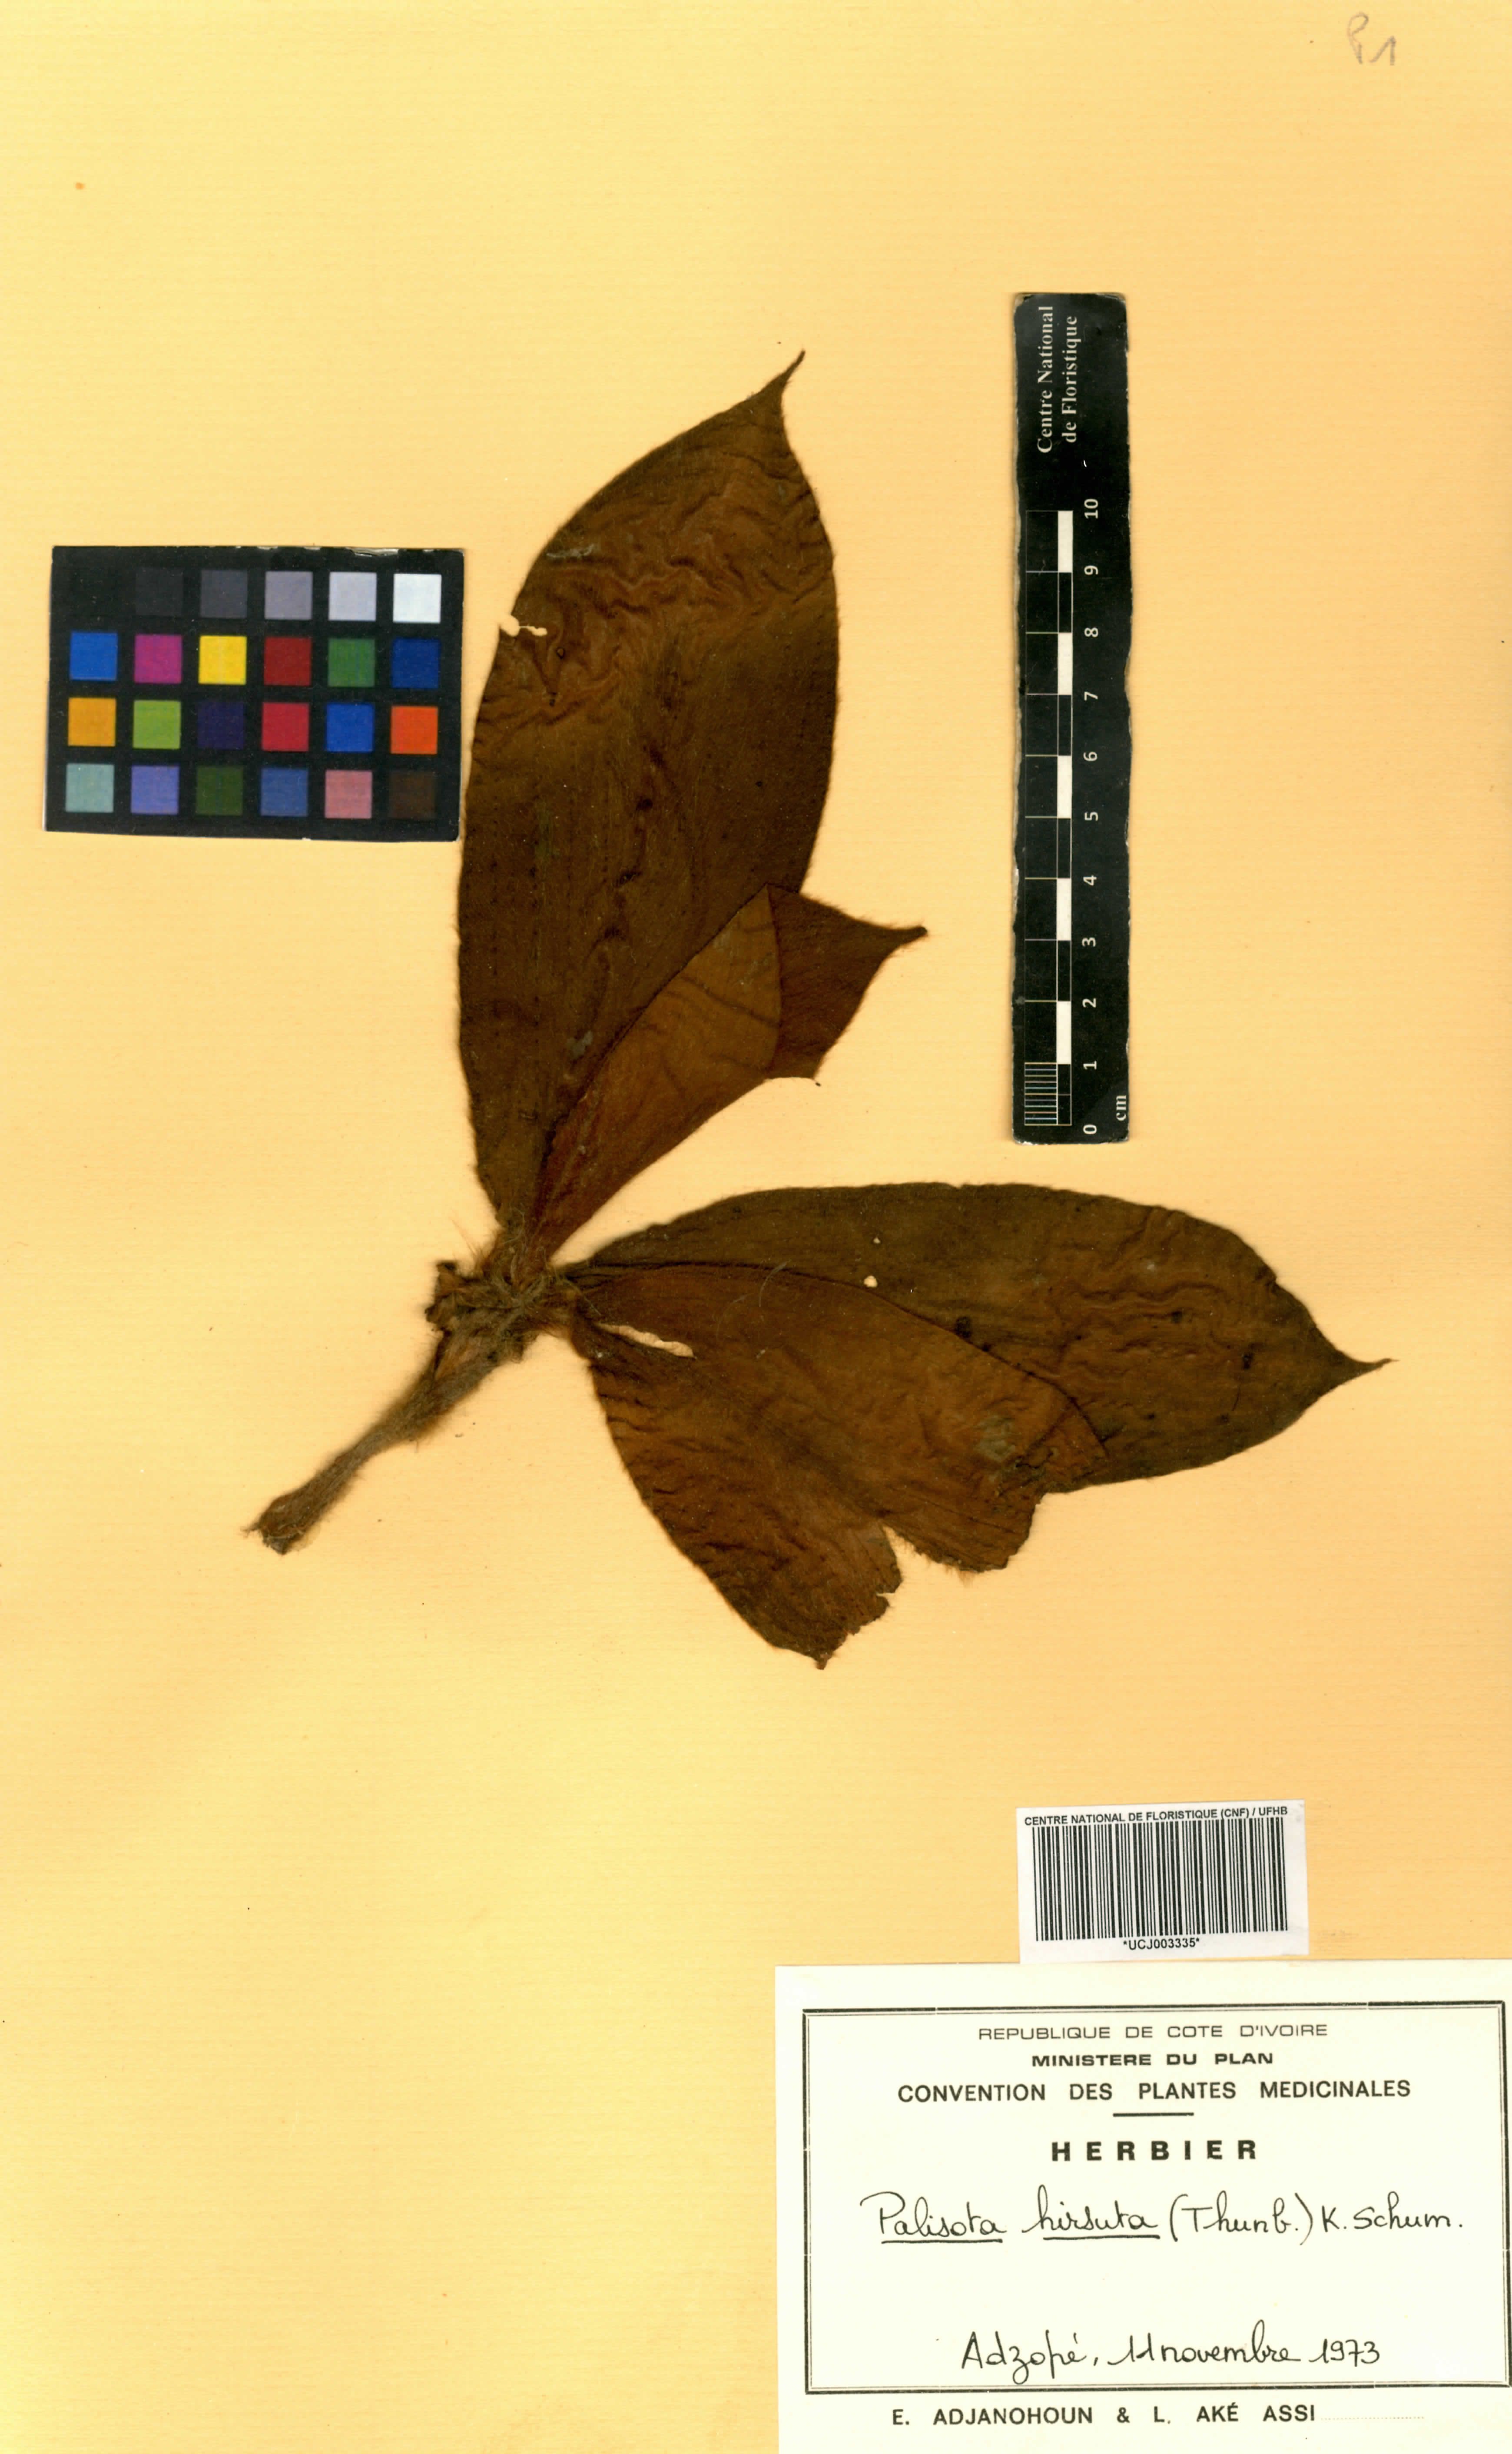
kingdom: Plantae
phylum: Tracheophyta
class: Liliopsida
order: Commelinales
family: Commelinaceae
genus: Palisota
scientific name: Palisota hirsuta
